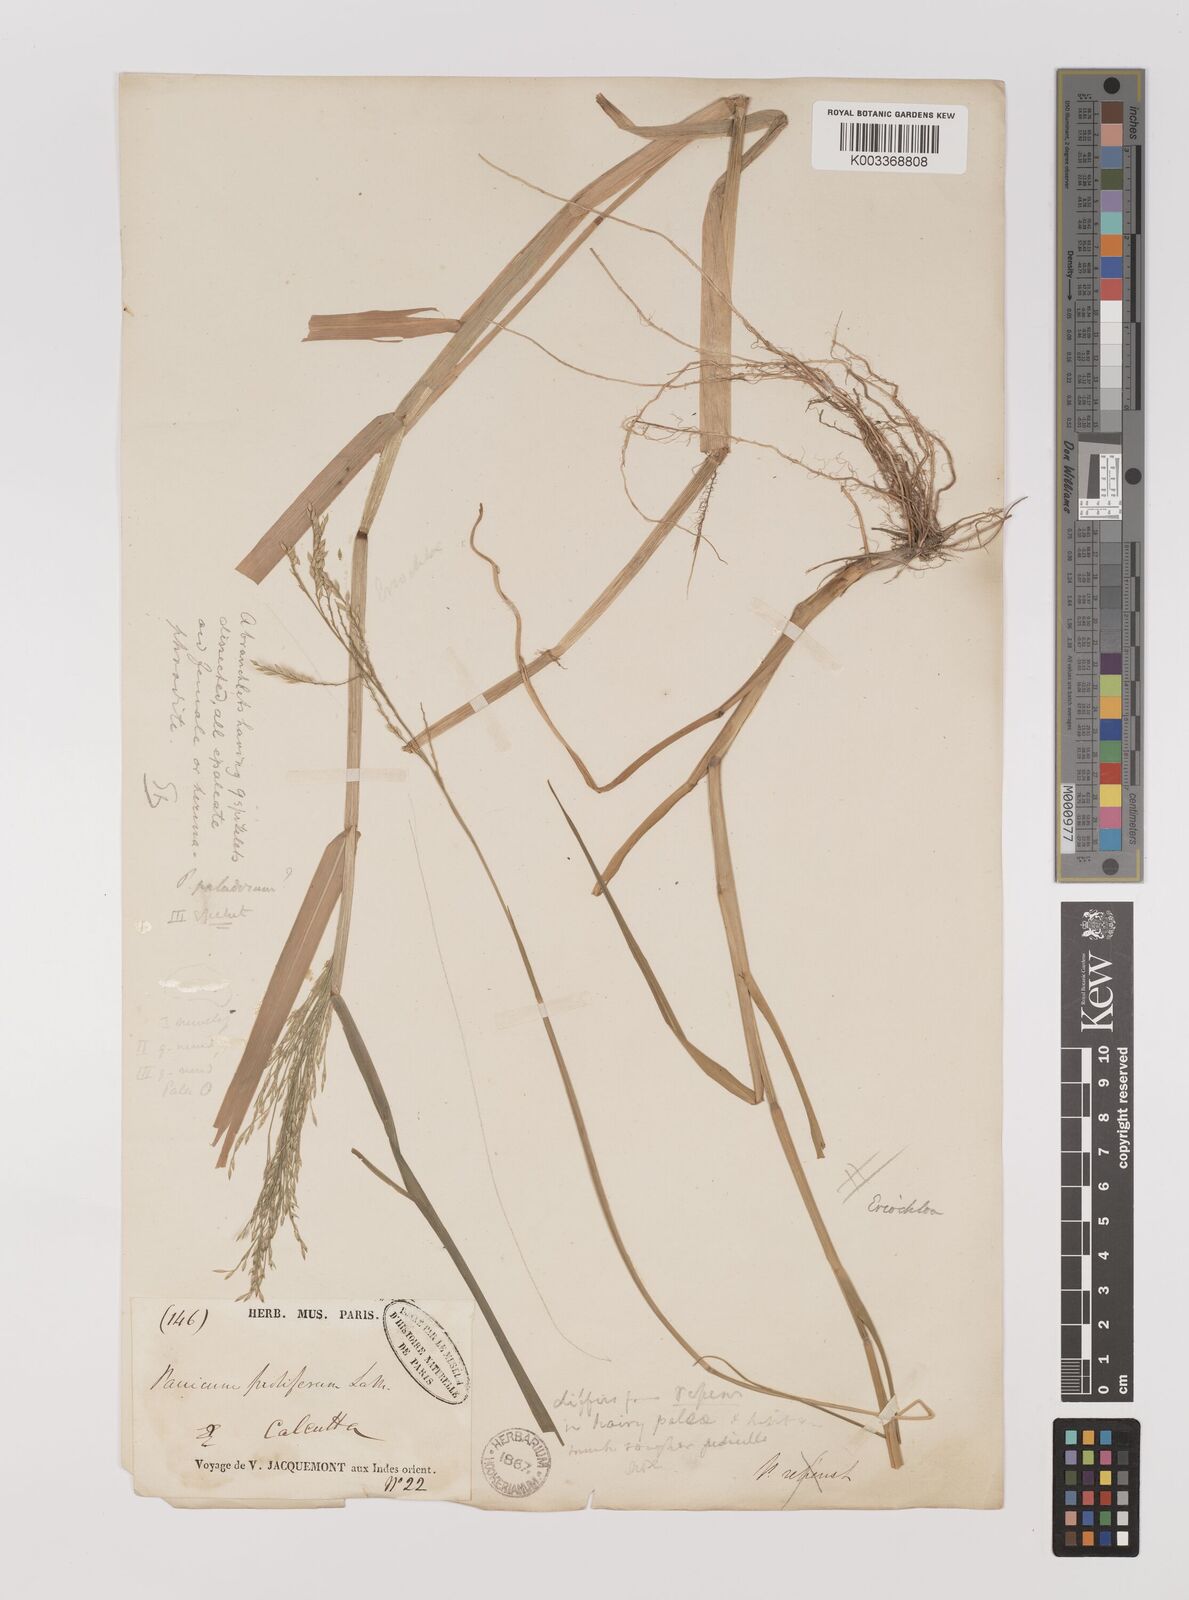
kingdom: Plantae
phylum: Tracheophyta
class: Liliopsida
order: Poales
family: Poaceae
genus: Louisiella
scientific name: Louisiella paludosa
